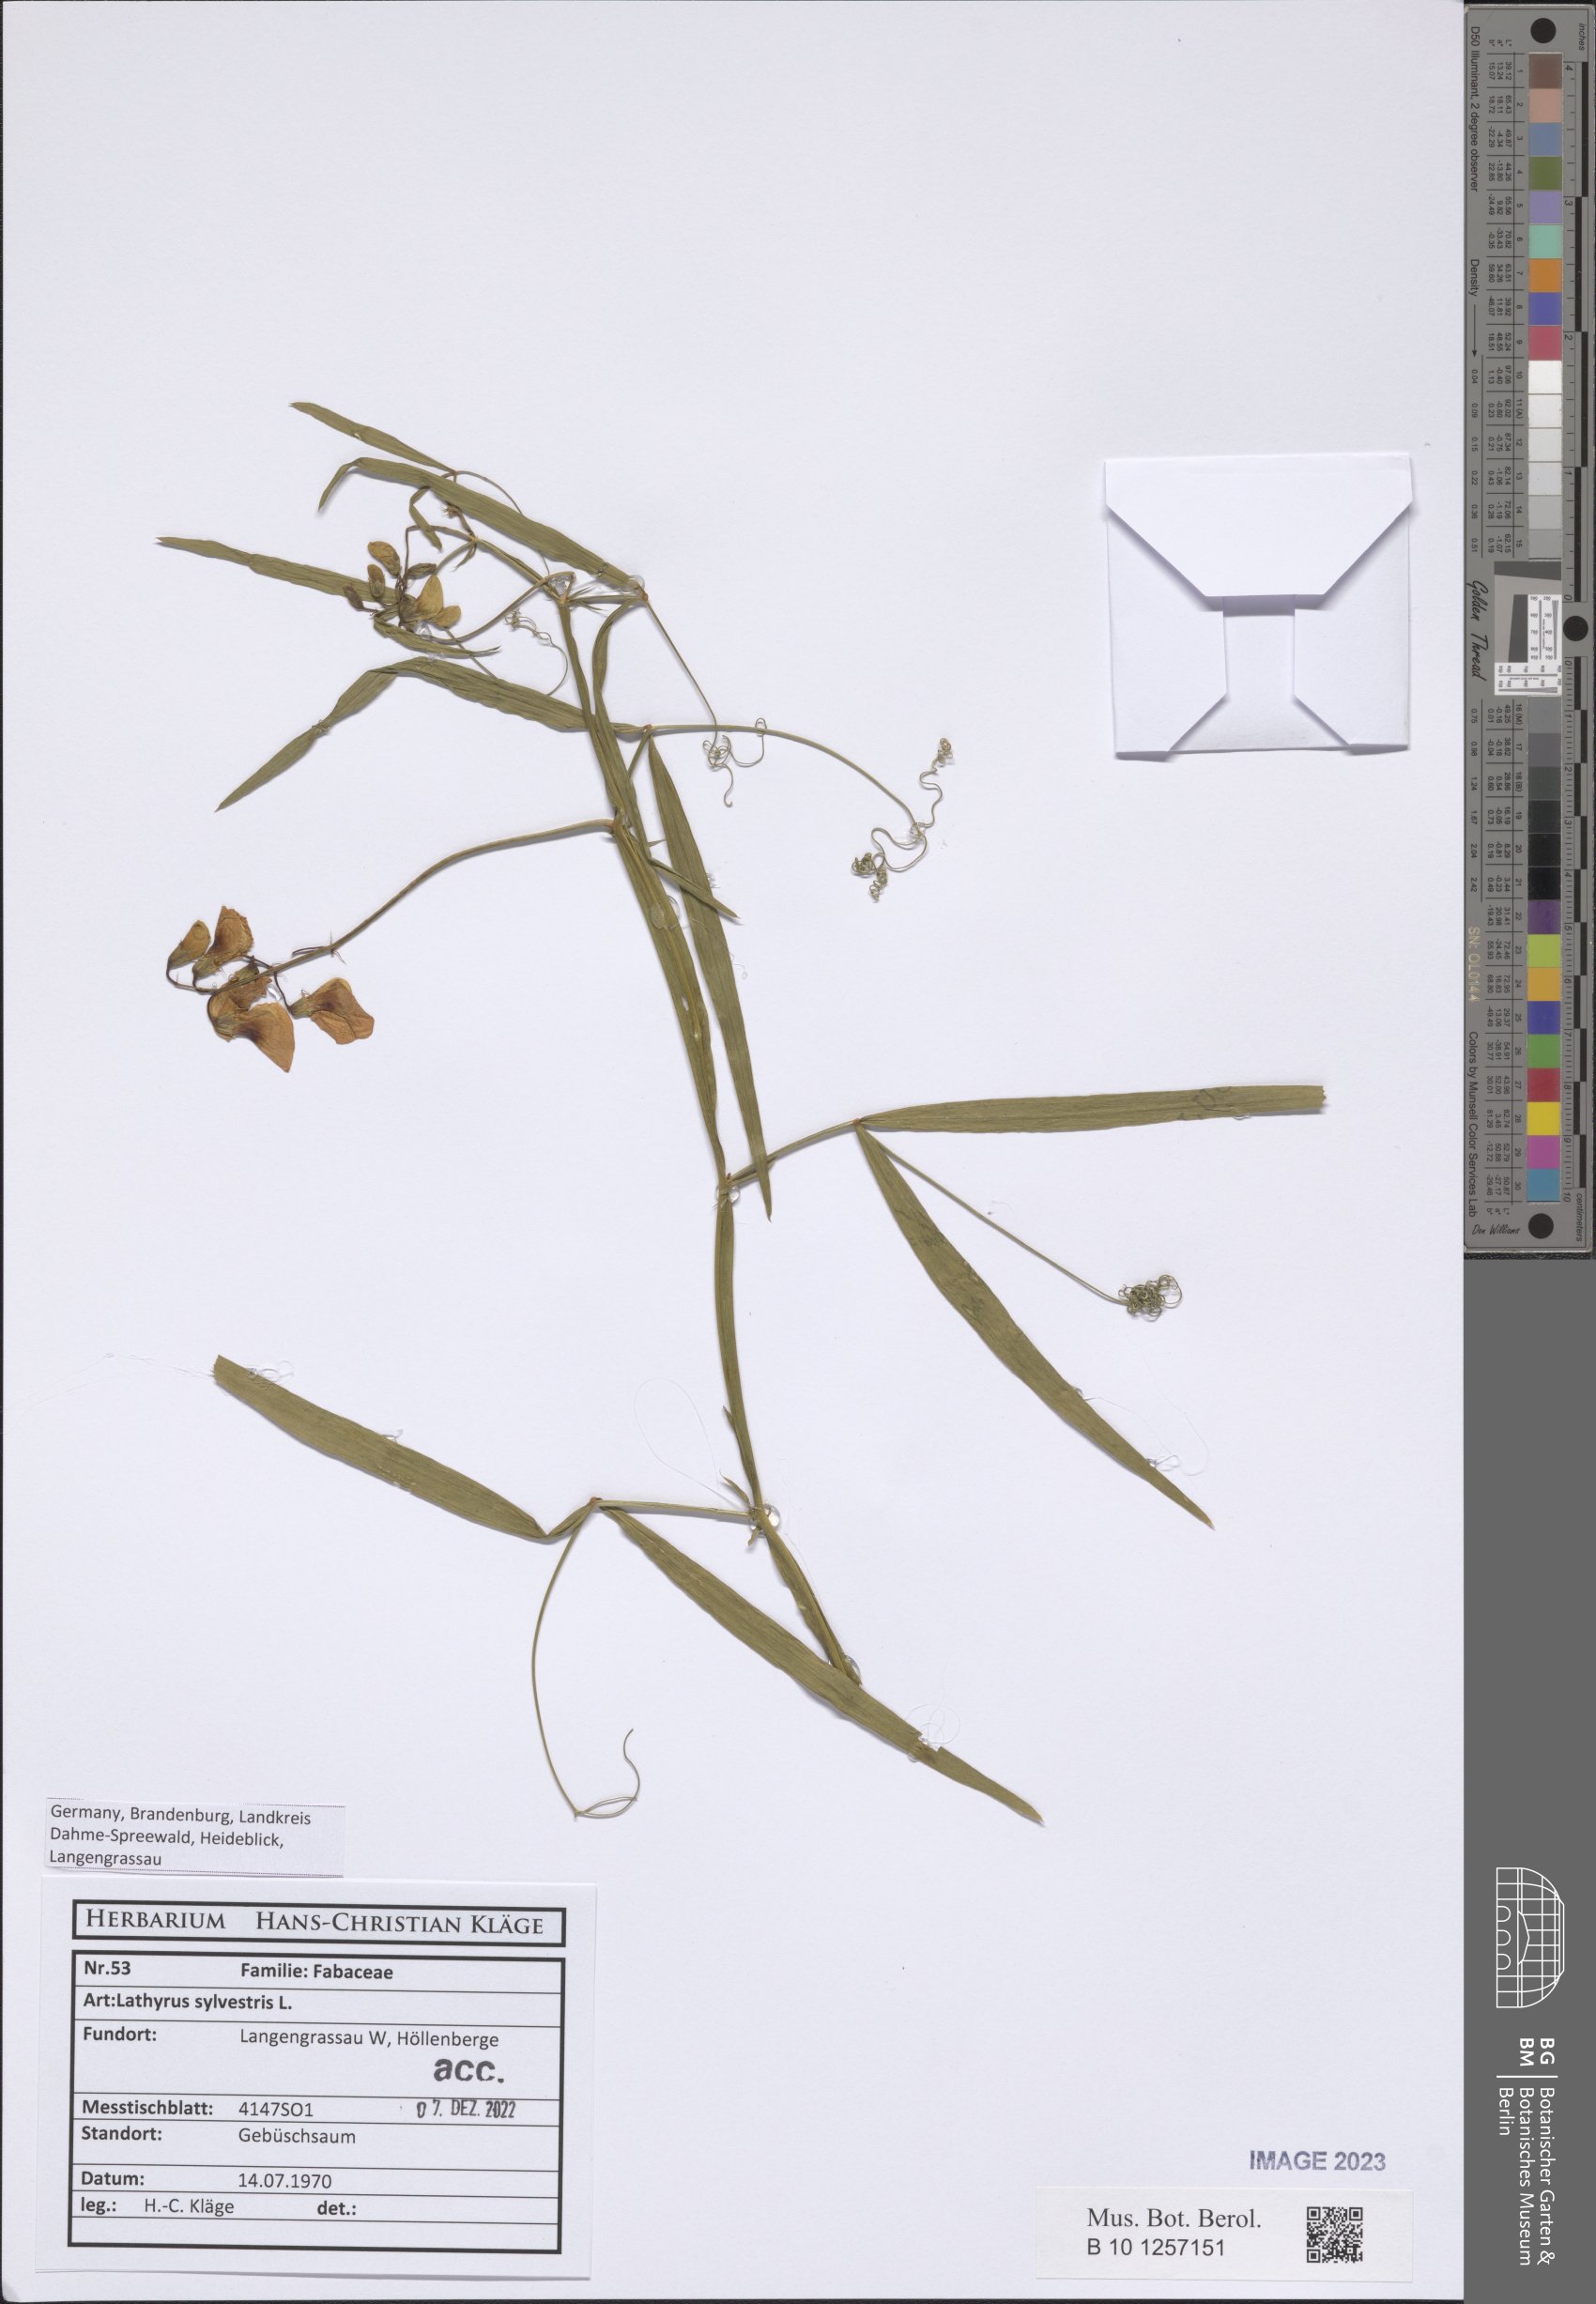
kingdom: Plantae
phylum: Tracheophyta
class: Magnoliopsida
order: Fabales
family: Fabaceae
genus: Lathyrus
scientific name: Lathyrus sylvestris
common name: Flat pea
